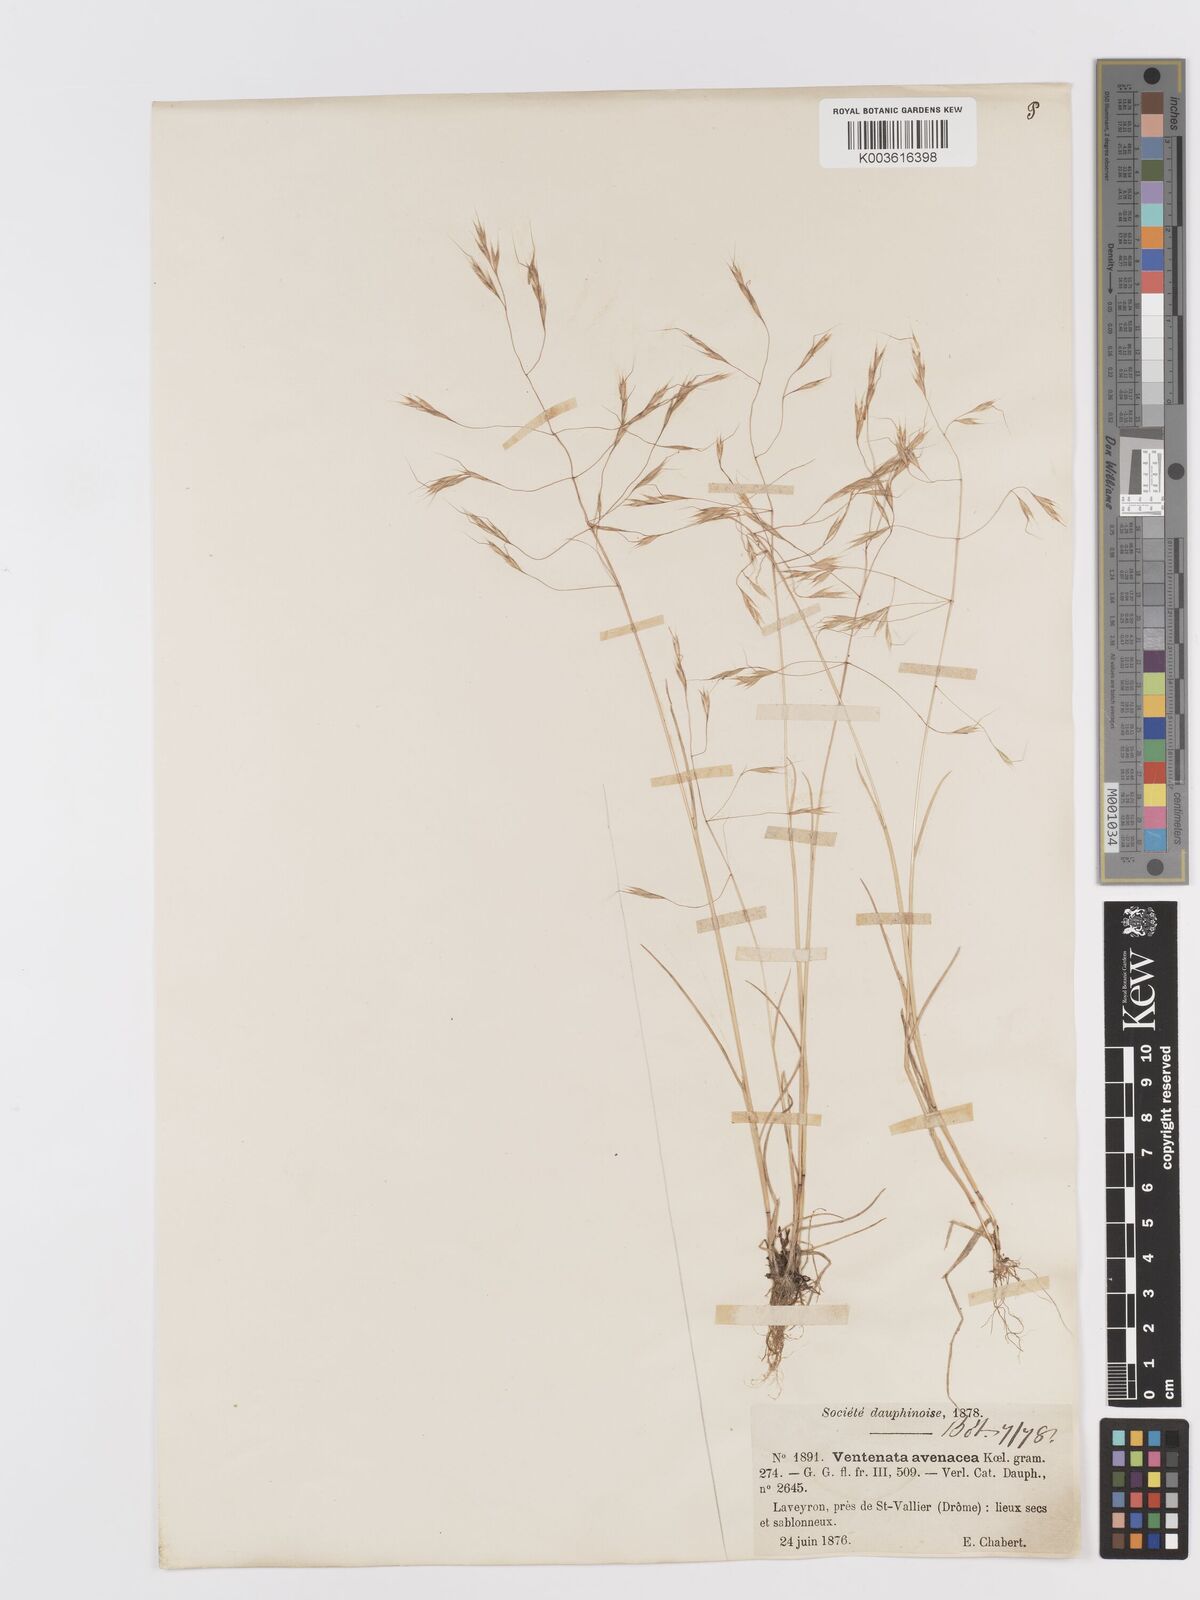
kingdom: Plantae
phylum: Tracheophyta
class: Liliopsida
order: Poales
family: Poaceae
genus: Ventenata
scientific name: Ventenata dubia
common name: North africa grass
